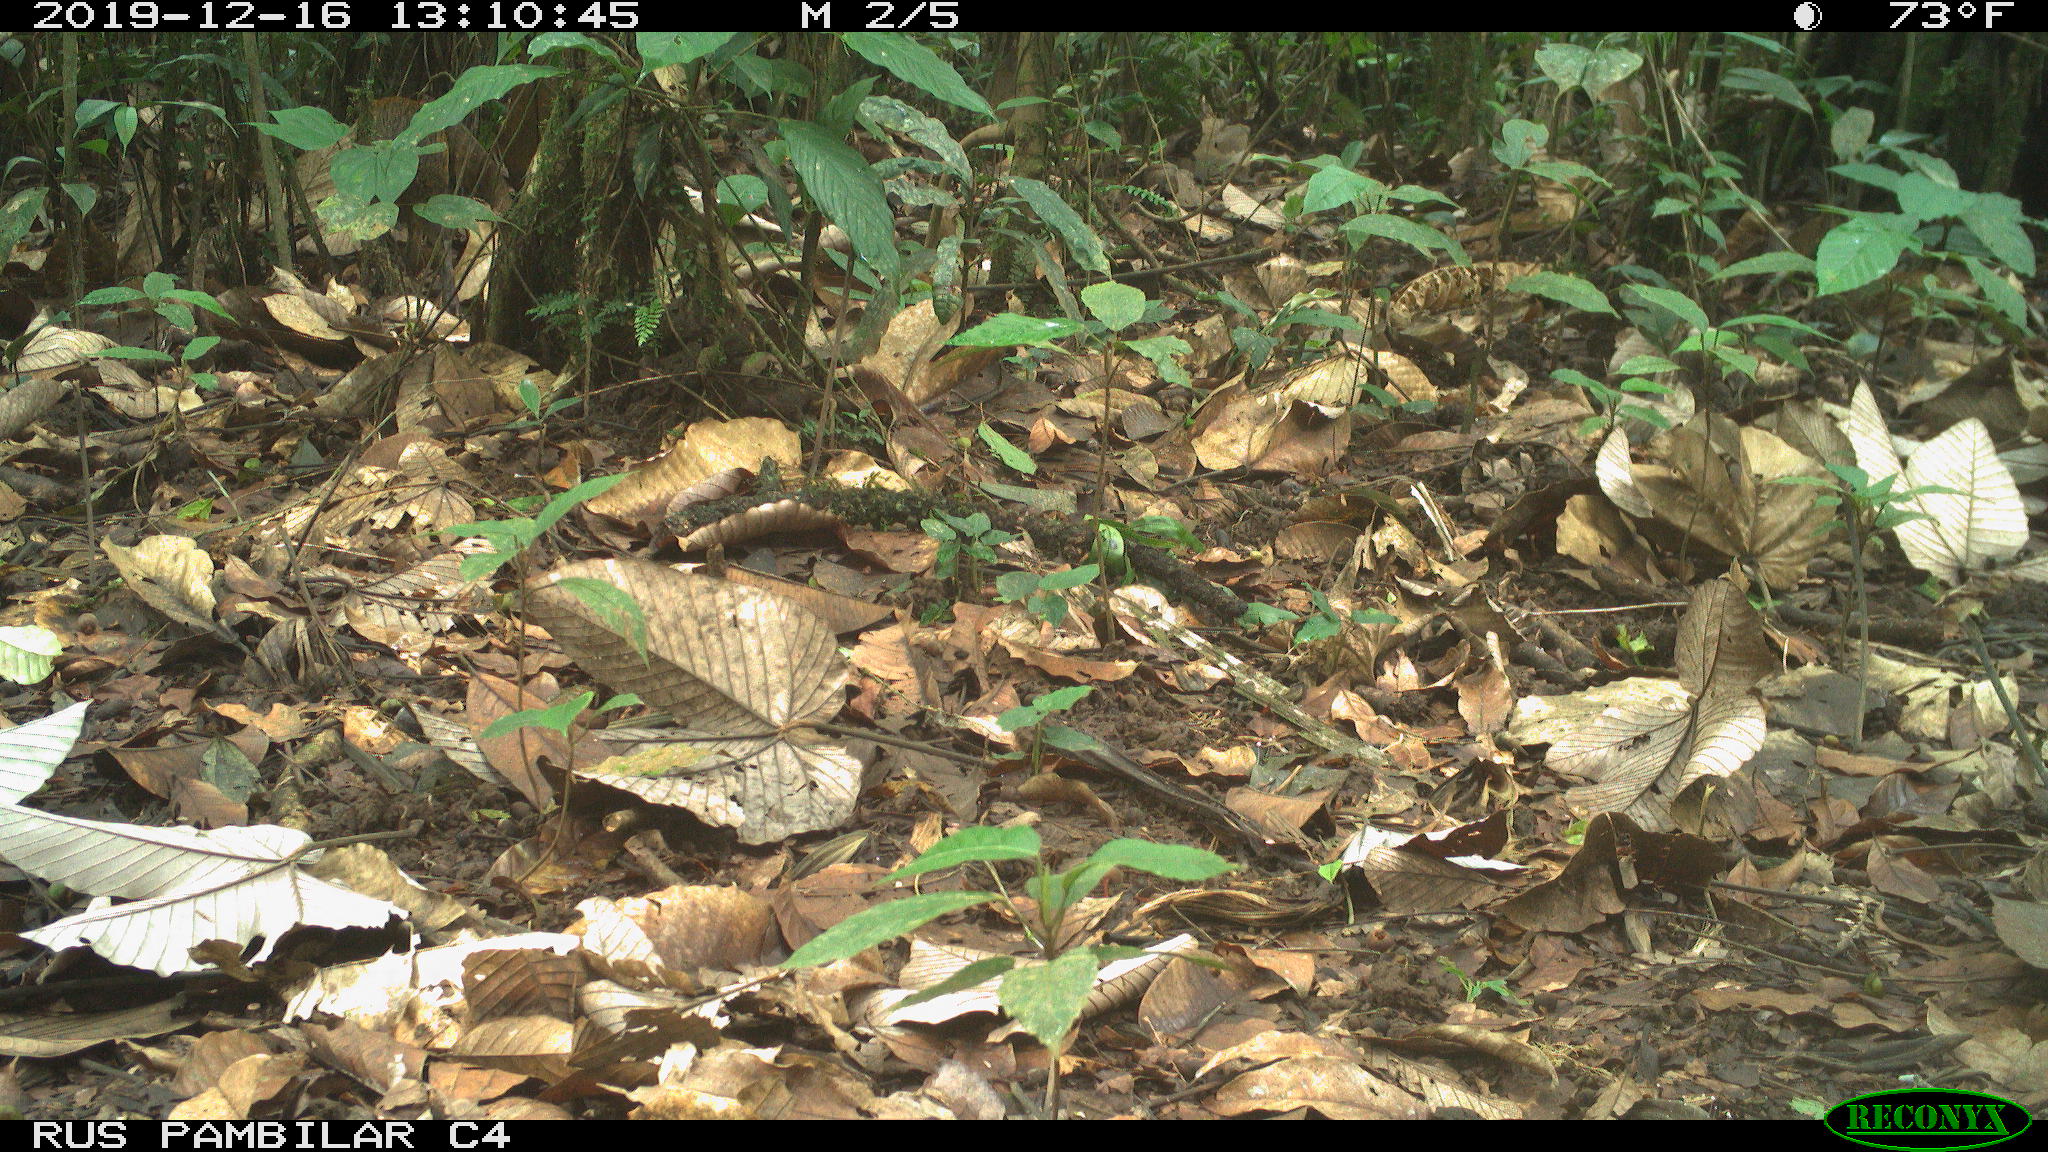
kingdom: Animalia
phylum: Chordata
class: Mammalia
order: Rodentia
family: Dasyproctidae
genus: Dasyprocta
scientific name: Dasyprocta punctata
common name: Central american agouti
